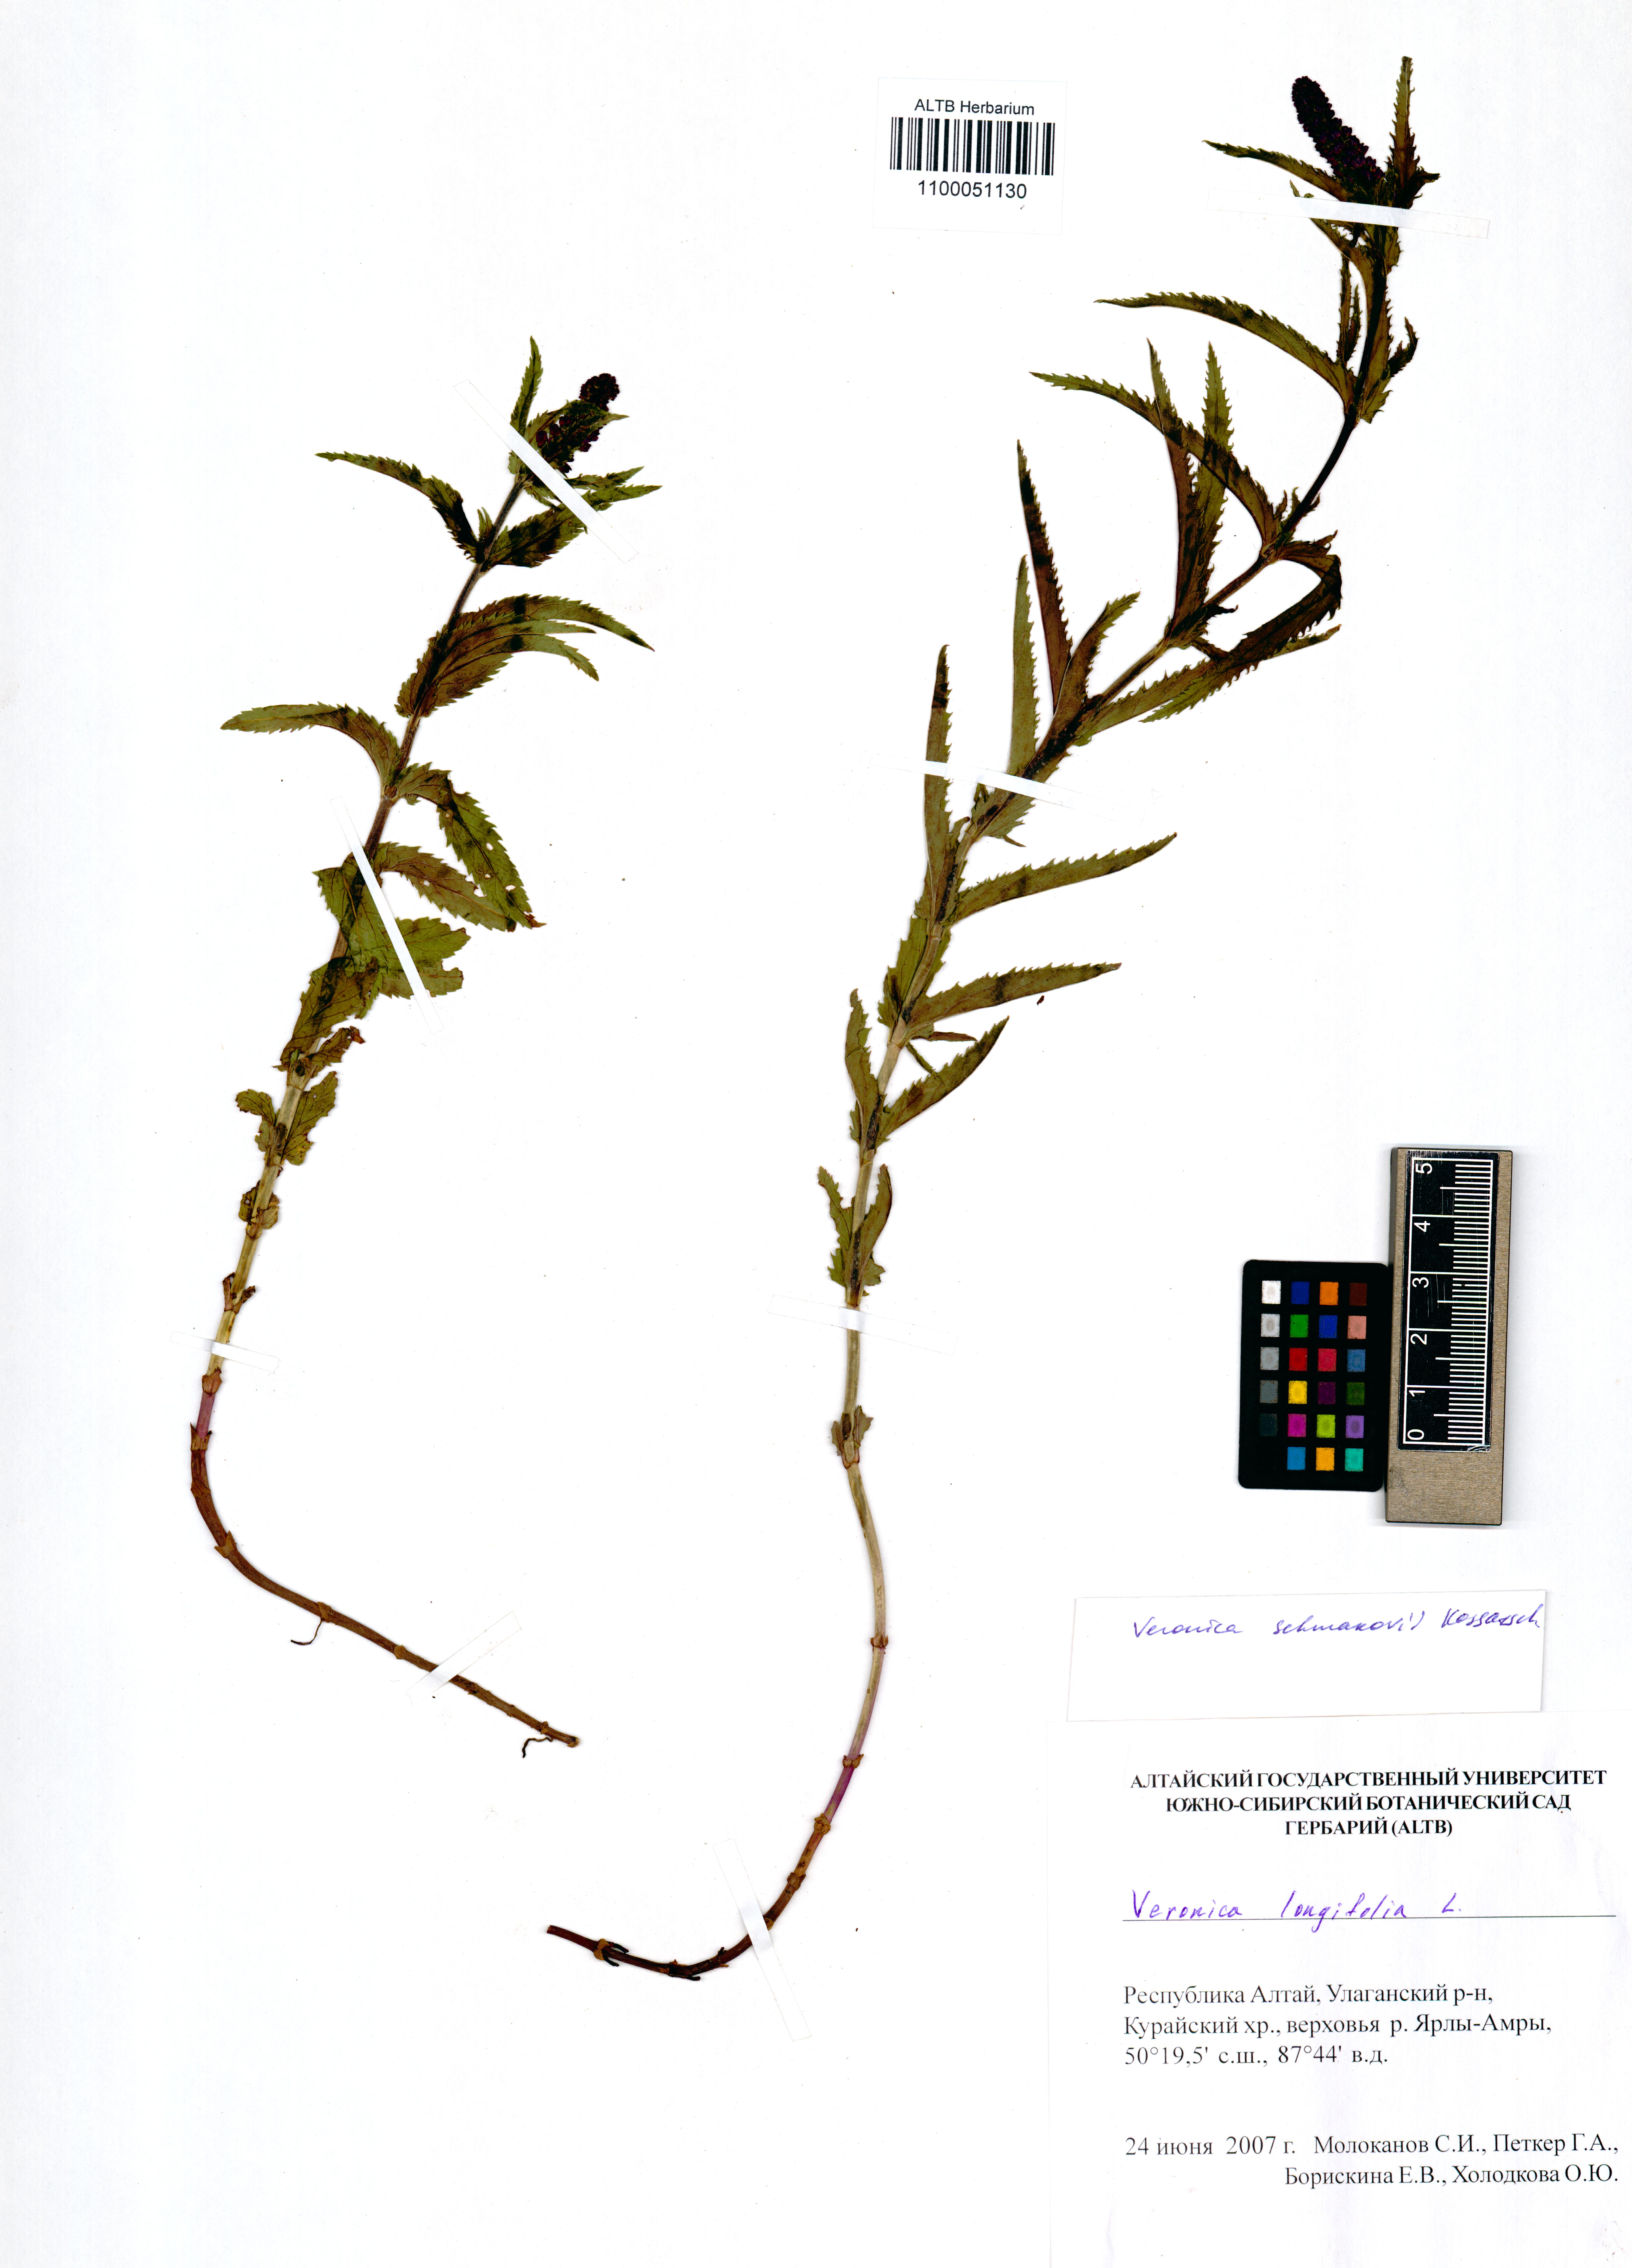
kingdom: Plantae
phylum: Tracheophyta
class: Magnoliopsida
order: Lamiales
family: Plantaginaceae
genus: Veronica
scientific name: Veronica schmakovii
